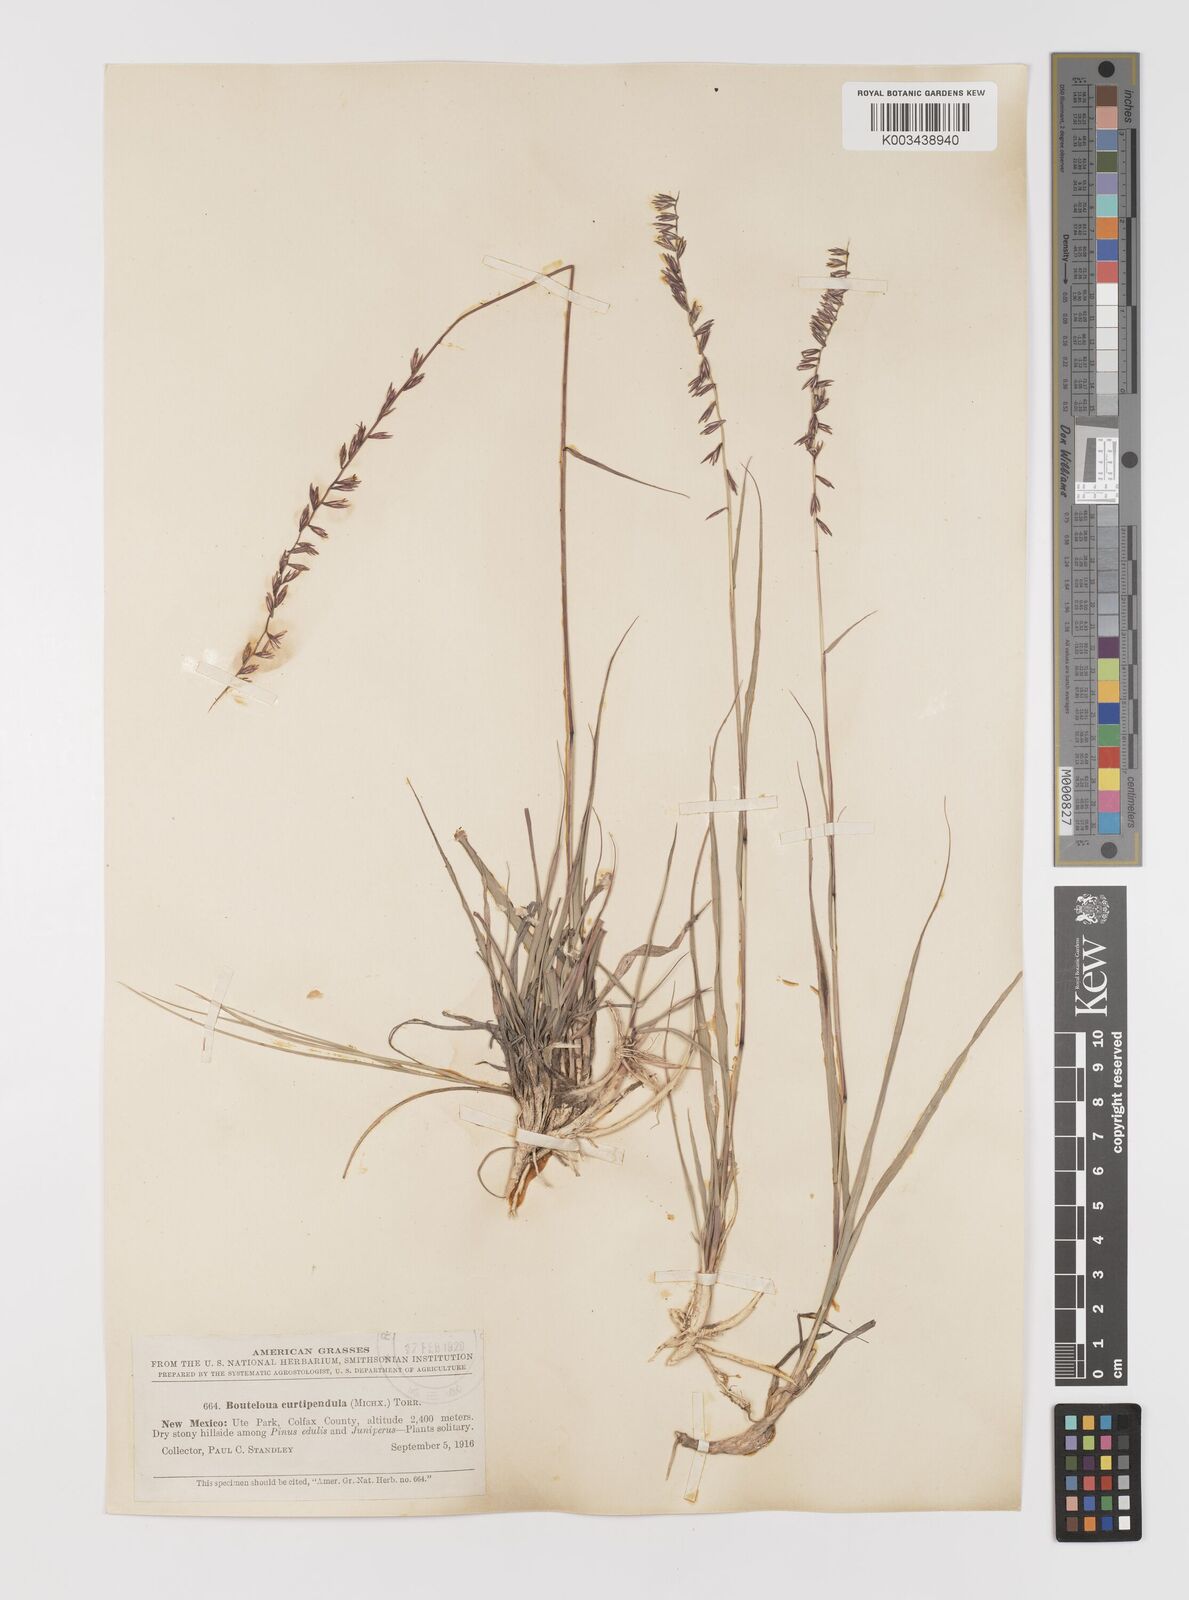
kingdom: Plantae
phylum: Tracheophyta
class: Liliopsida
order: Poales
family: Poaceae
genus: Bouteloua
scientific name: Bouteloua curtipendula
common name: Side-oats grama
